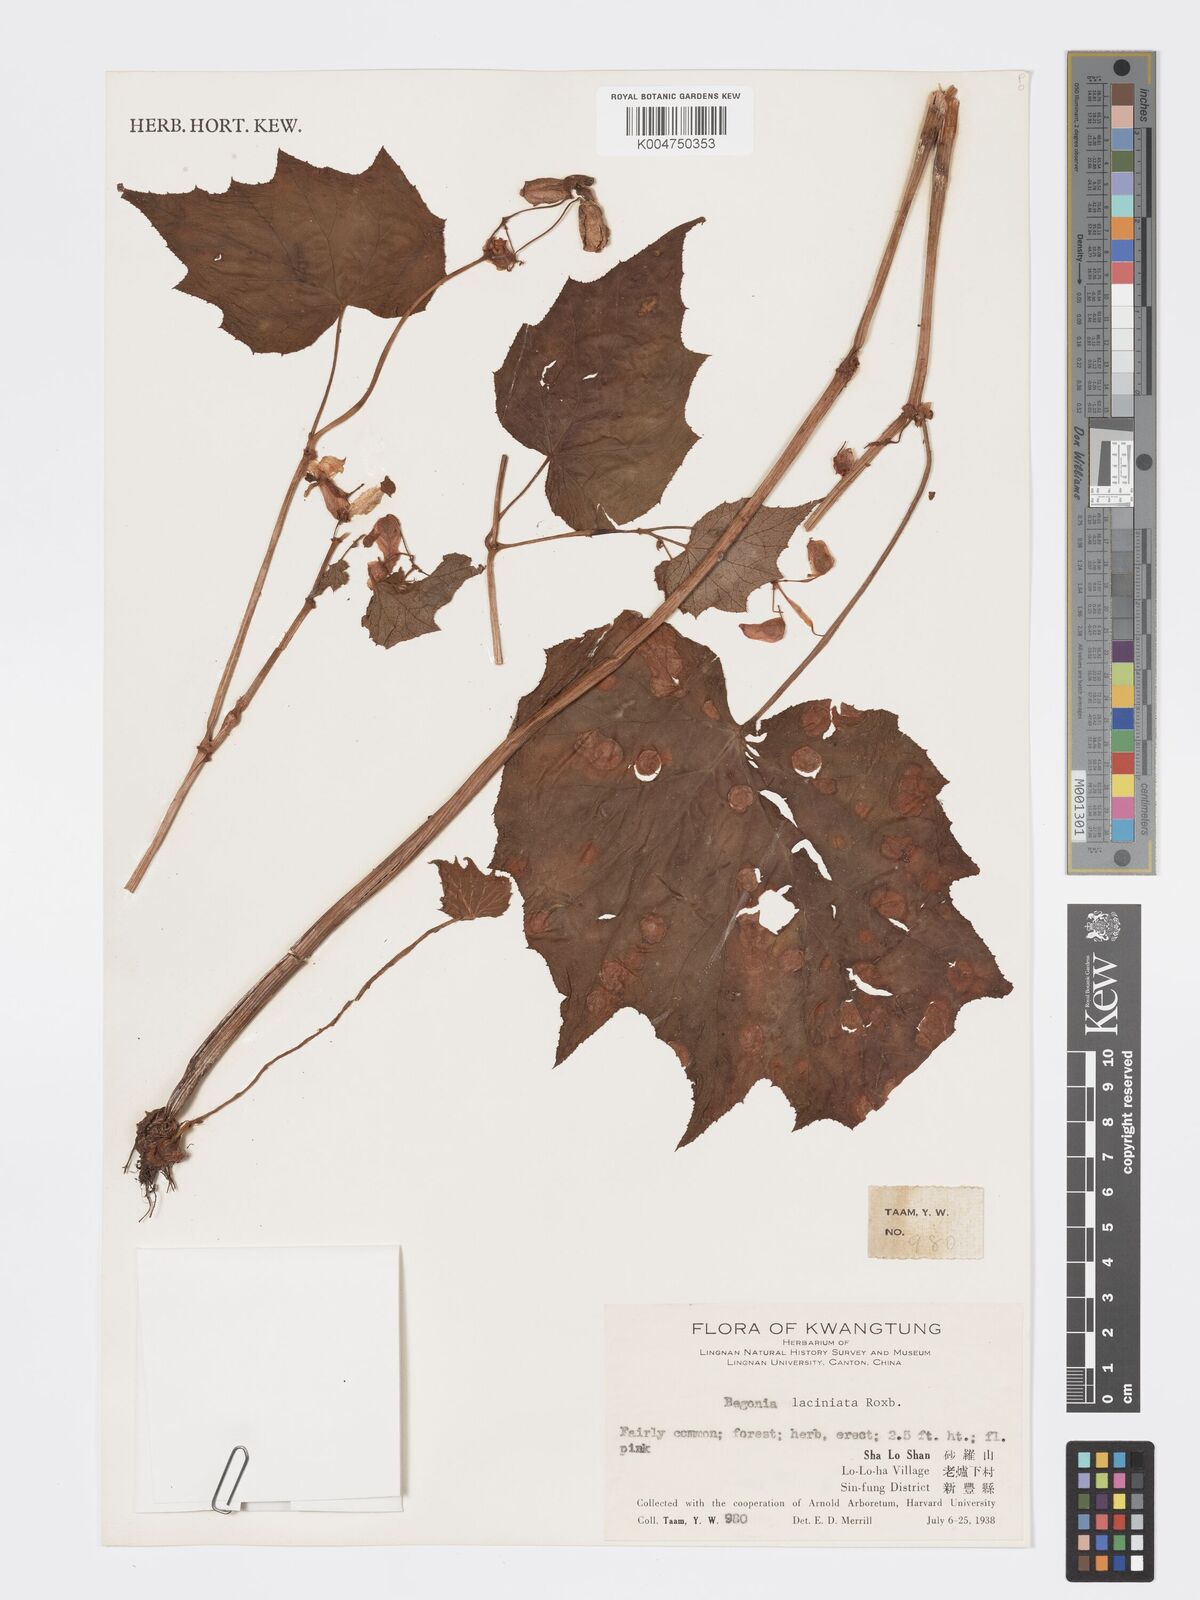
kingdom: Plantae
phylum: Tracheophyta
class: Magnoliopsida
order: Cucurbitales
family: Begoniaceae
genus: Begonia
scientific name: Begonia palmata
